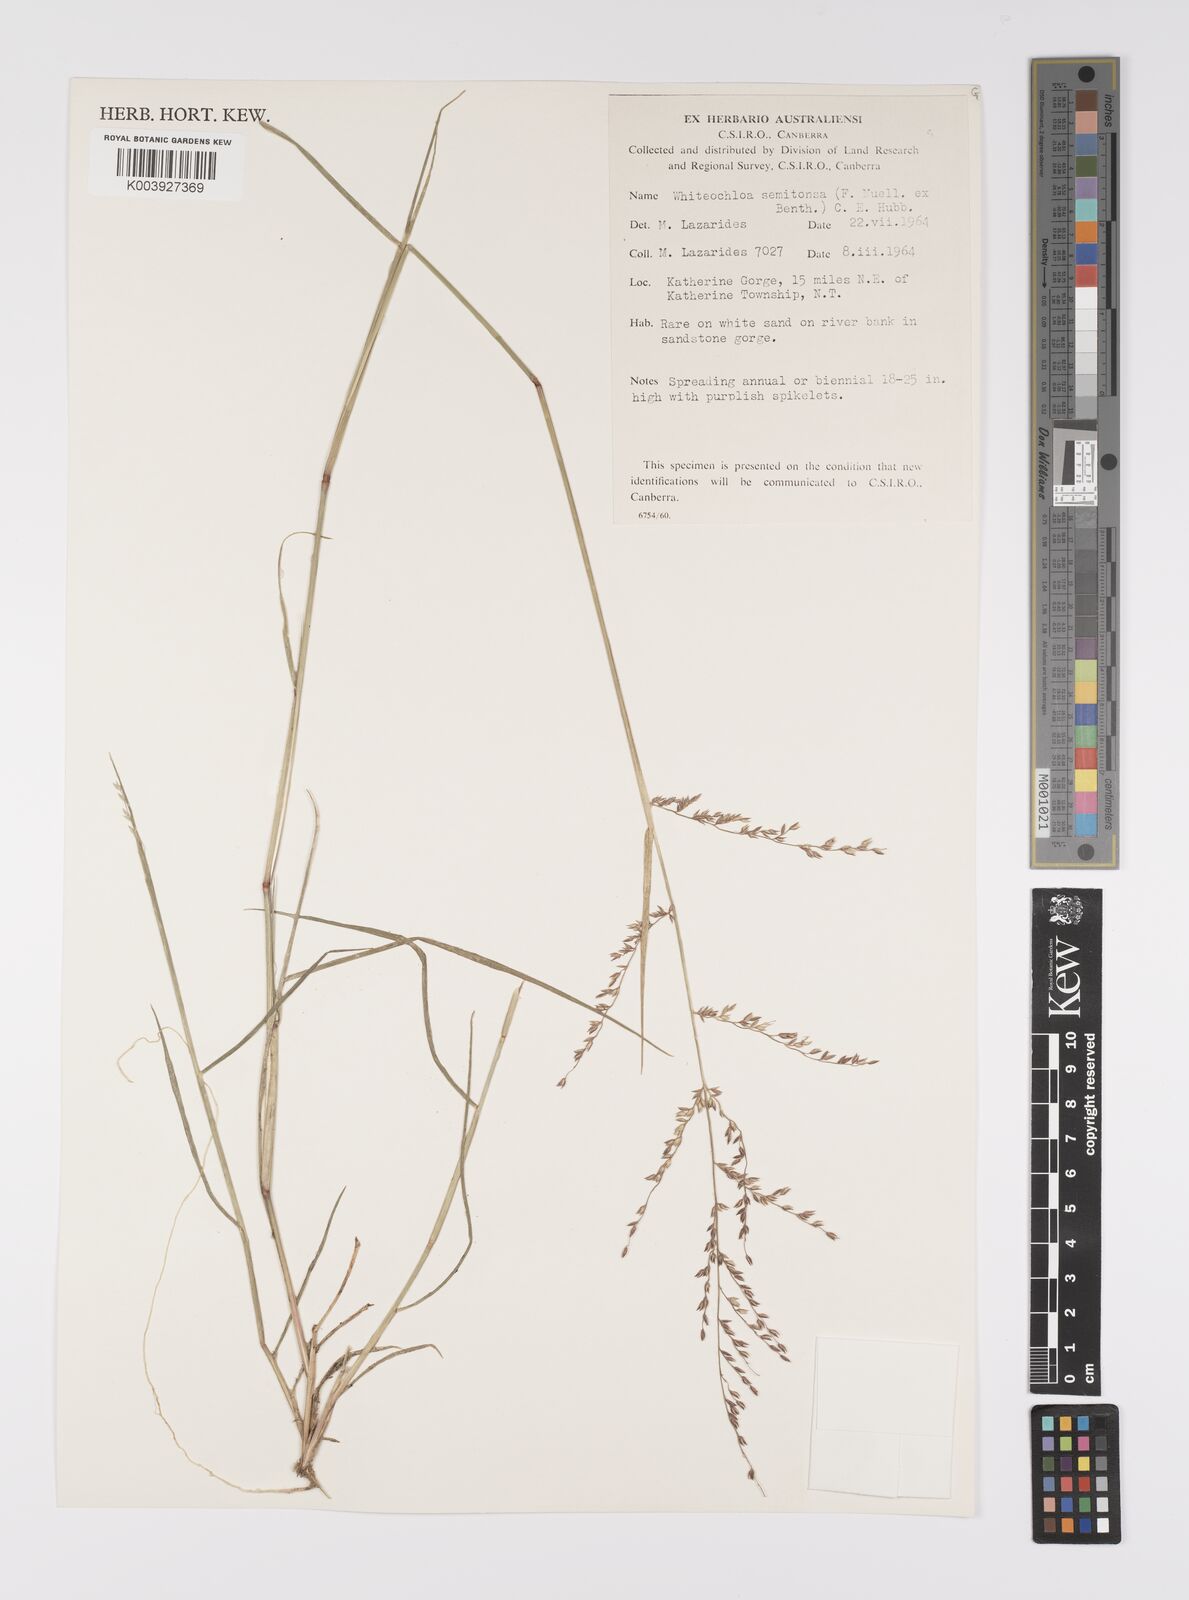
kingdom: Plantae
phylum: Tracheophyta
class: Liliopsida
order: Poales
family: Poaceae
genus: Whiteochloa
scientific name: Whiteochloa semitonsa
